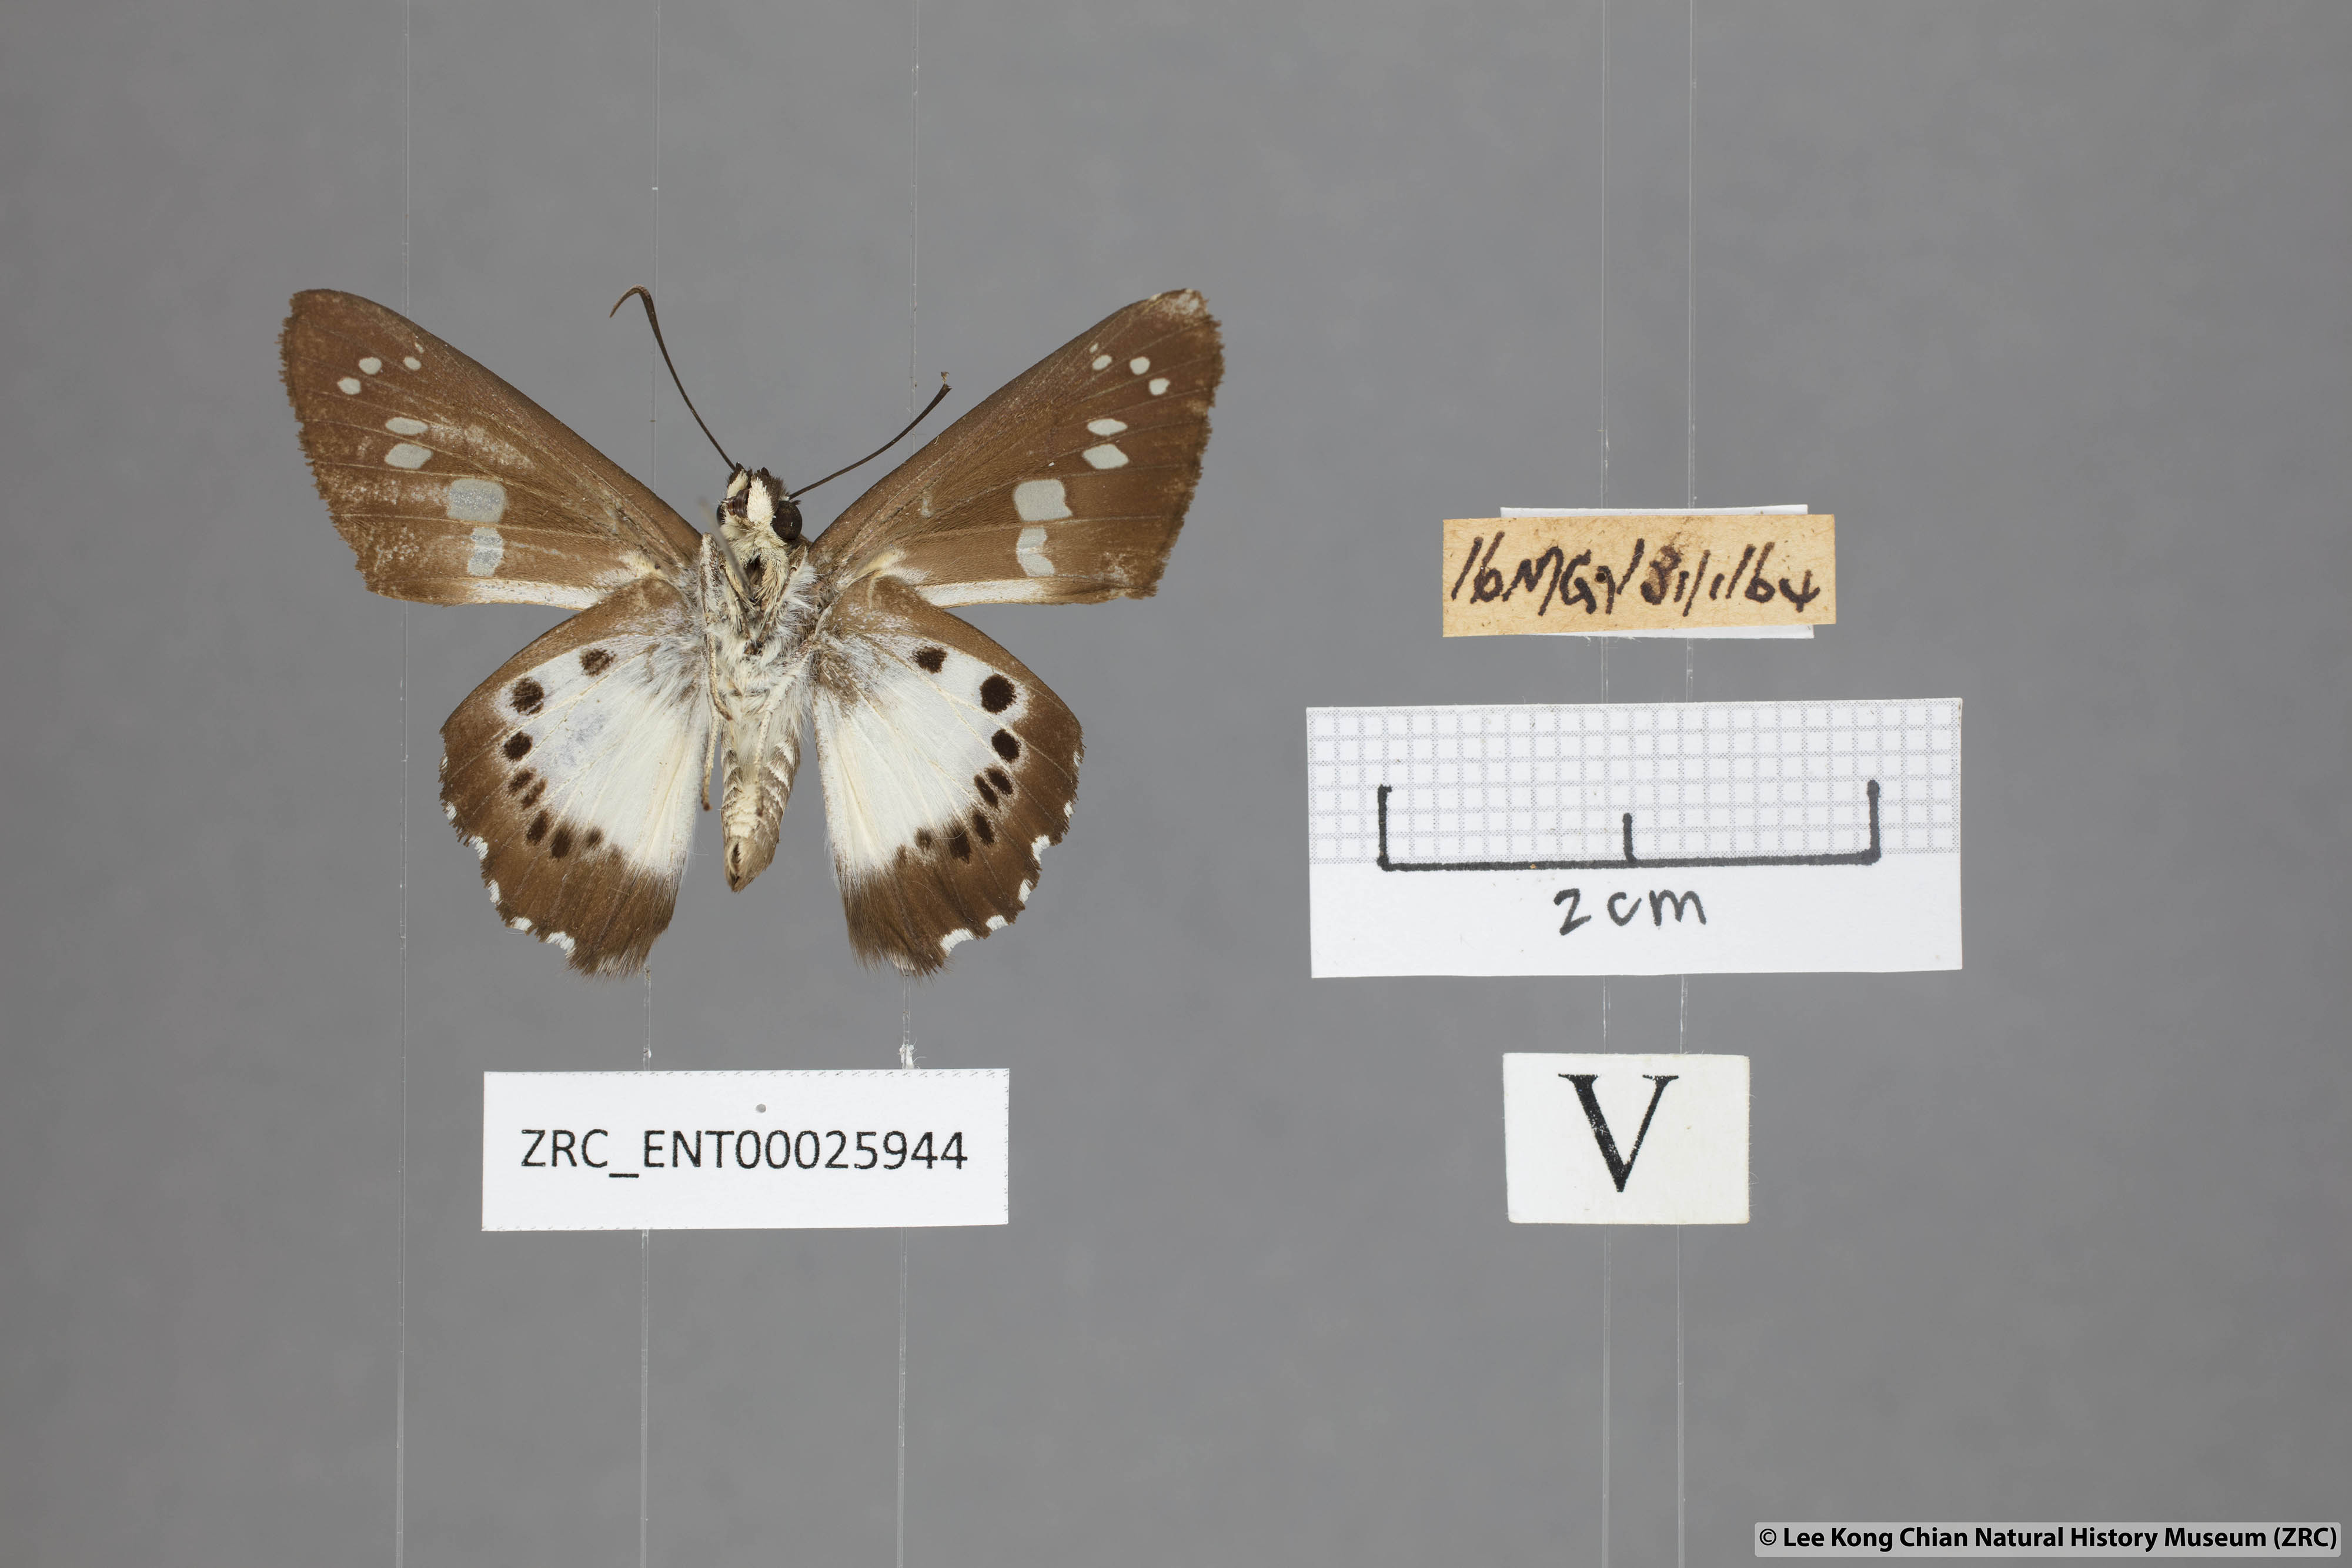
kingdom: Animalia
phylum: Arthropoda
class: Insecta
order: Lepidoptera
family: Hesperiidae
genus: Seseria
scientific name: Seseria affinis
